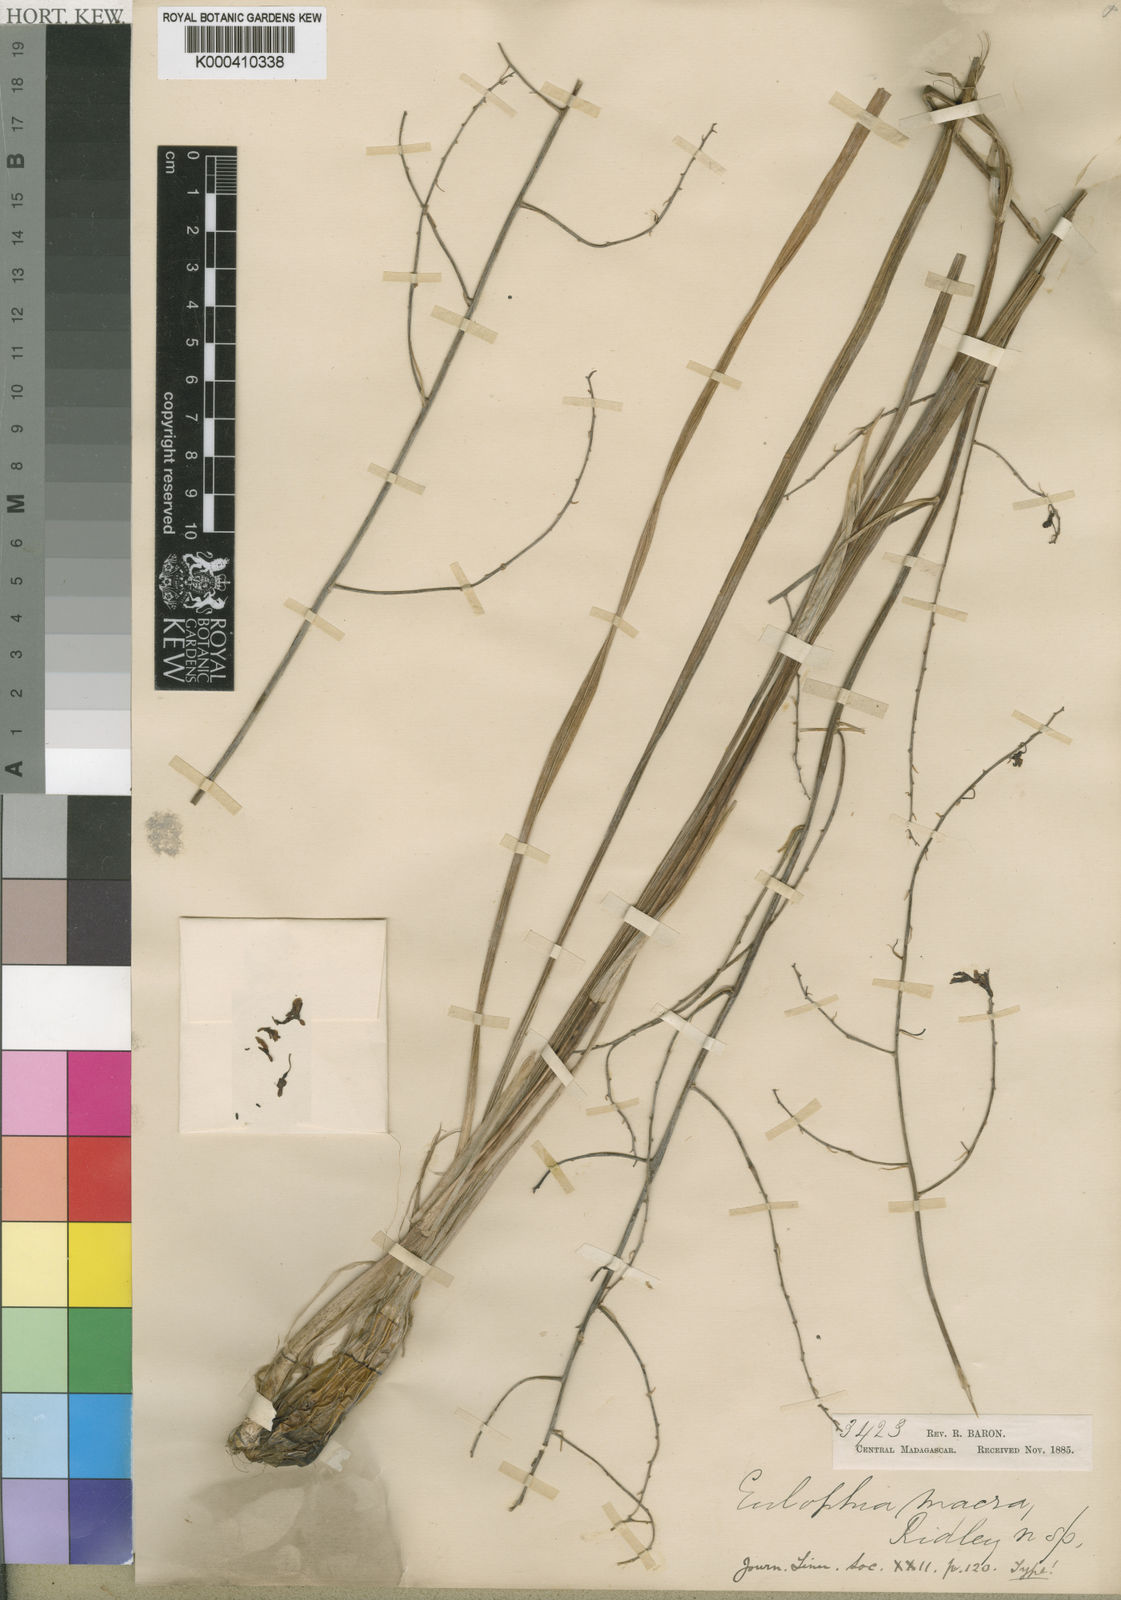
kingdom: Plantae
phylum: Tracheophyta
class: Liliopsida
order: Asparagales
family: Orchidaceae
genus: Eulophia
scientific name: Eulophia macra
